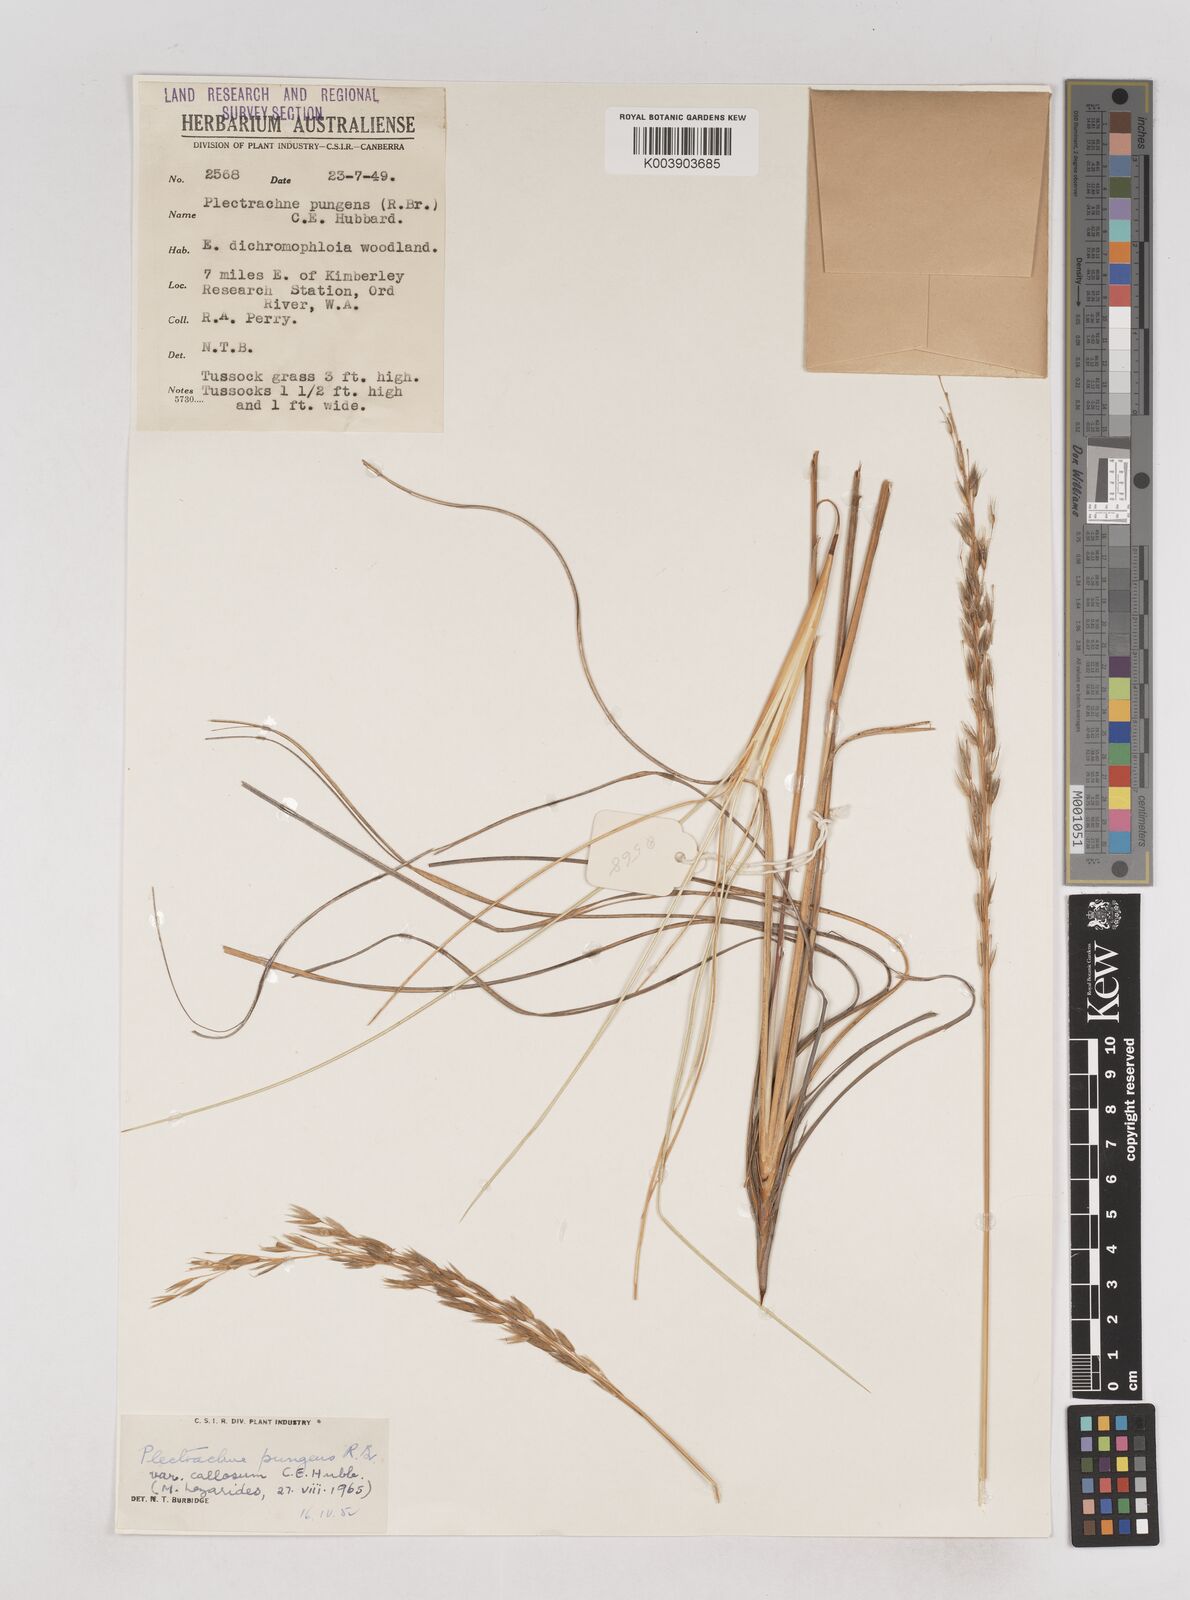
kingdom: Plantae
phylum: Tracheophyta
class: Liliopsida
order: Poales
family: Poaceae
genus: Triodia
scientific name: Triodia bitextura
